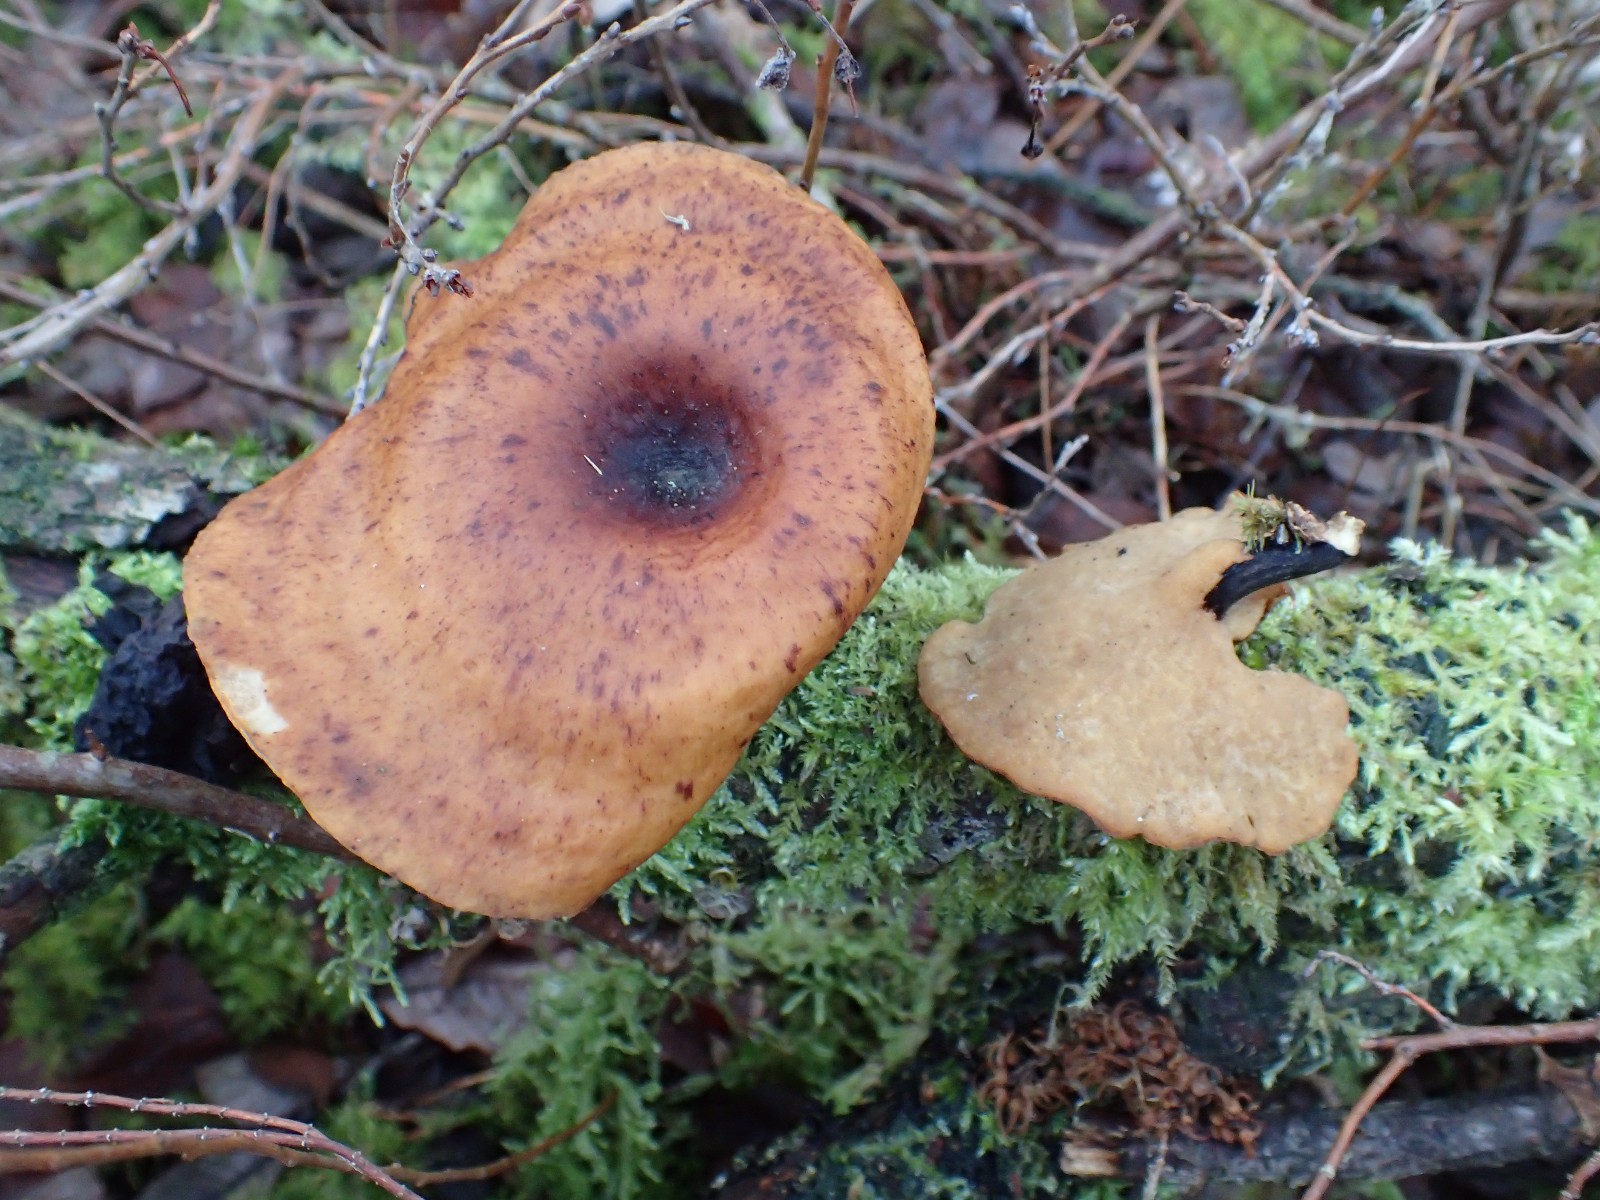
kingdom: Fungi
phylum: Basidiomycota
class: Agaricomycetes
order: Polyporales
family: Polyporaceae
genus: Picipes
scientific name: Picipes tubaeformis
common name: trompet-stilkporesvamp
